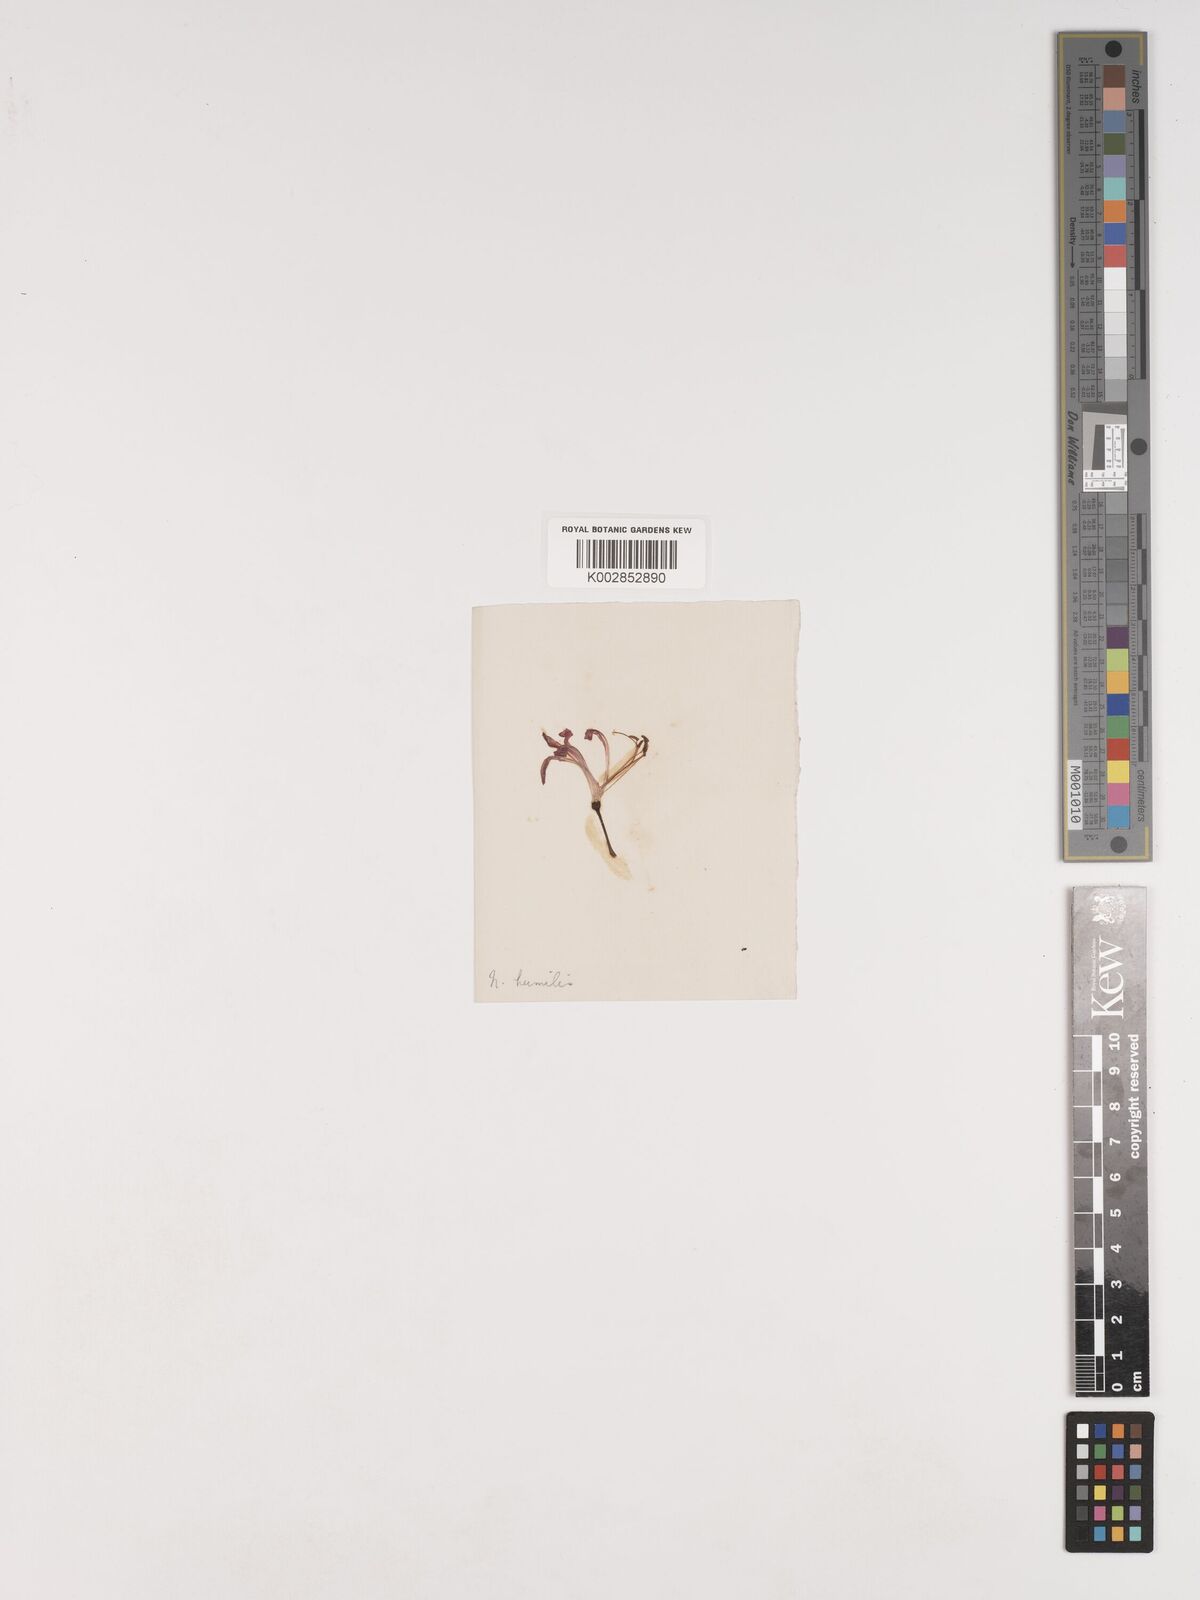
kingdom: Plantae
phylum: Tracheophyta
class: Liliopsida
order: Asparagales
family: Amaryllidaceae
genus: Nerine
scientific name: Nerine humilis
